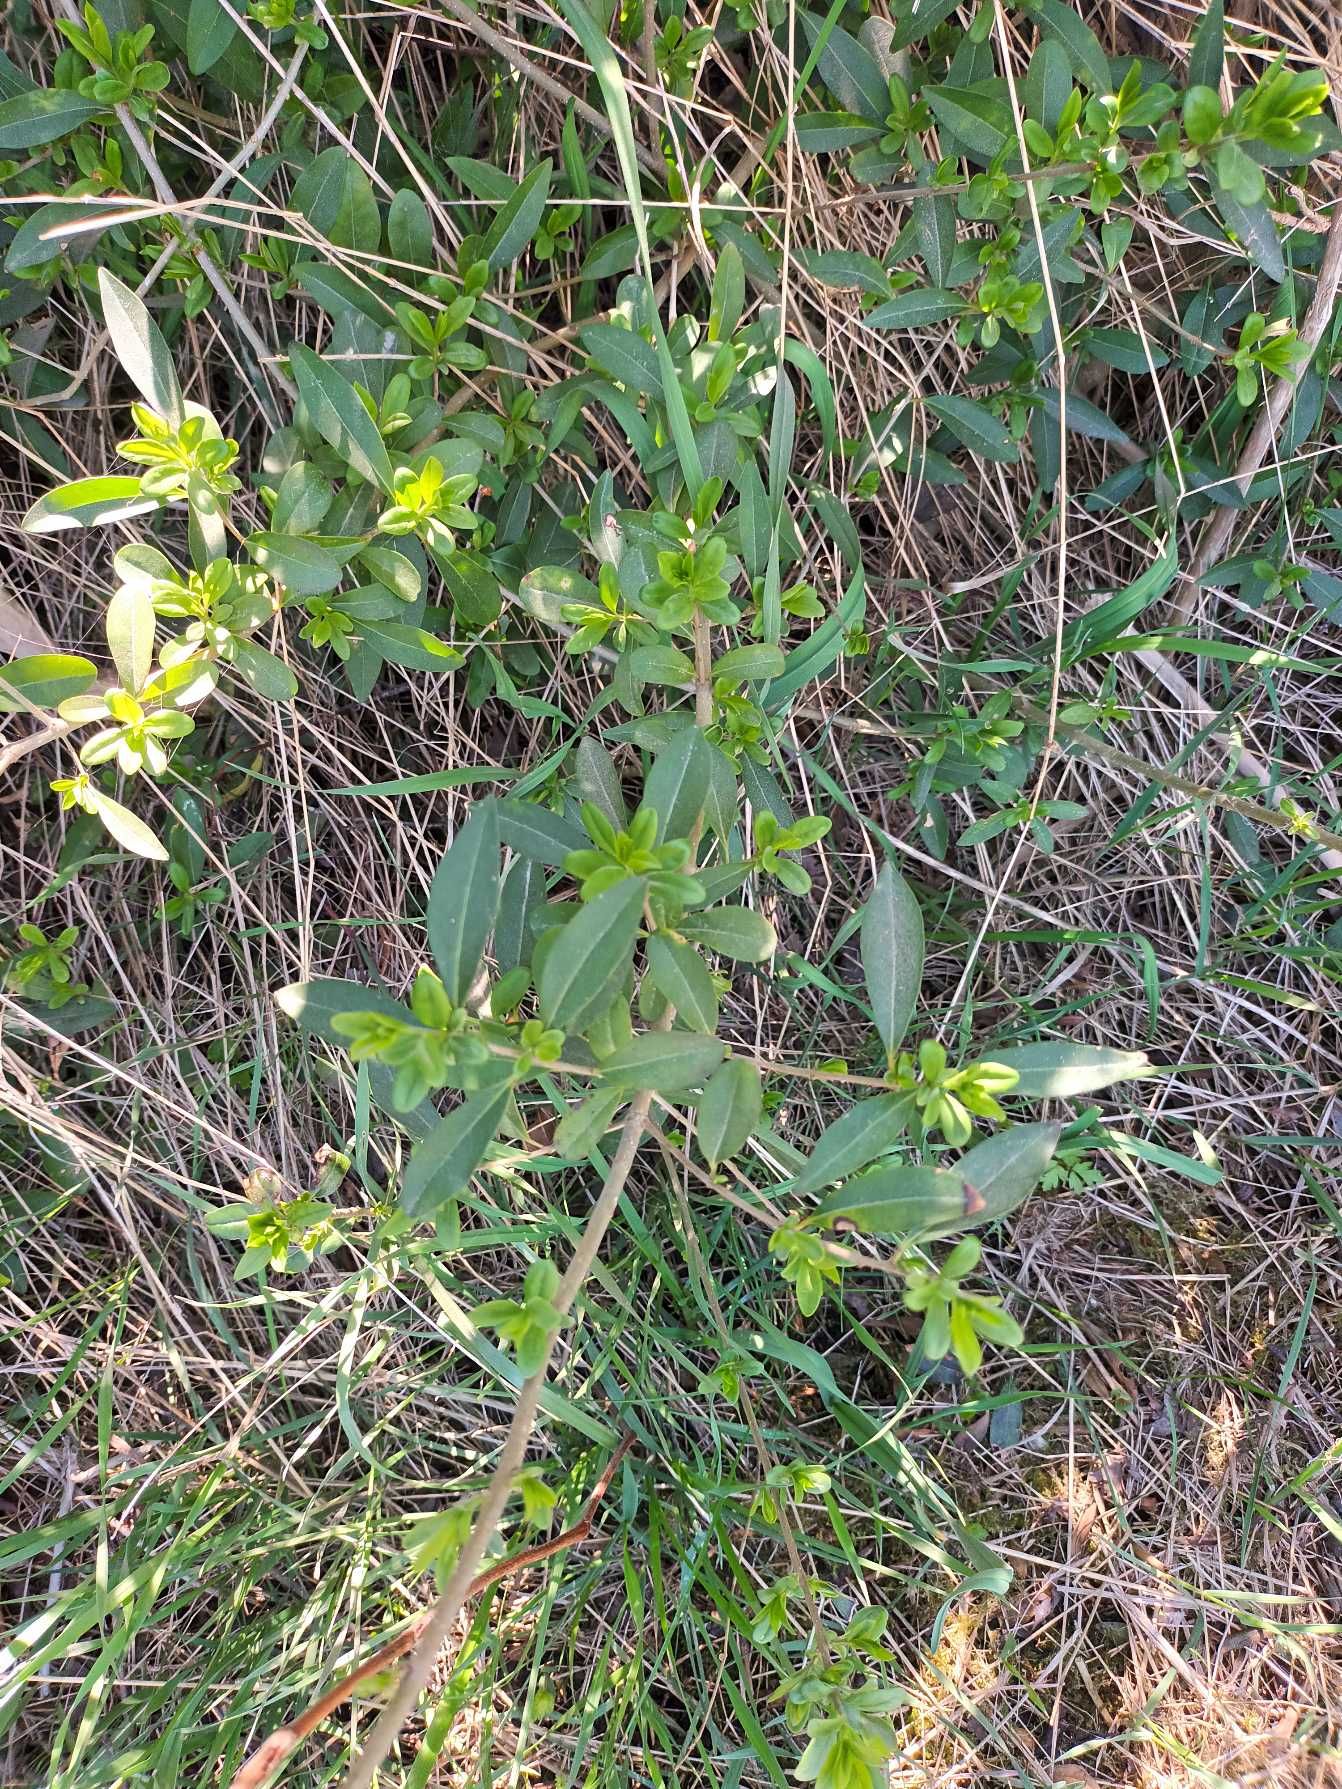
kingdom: Plantae
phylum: Tracheophyta
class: Magnoliopsida
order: Lamiales
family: Oleaceae
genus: Ligustrum
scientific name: Ligustrum vulgare
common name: Liguster
